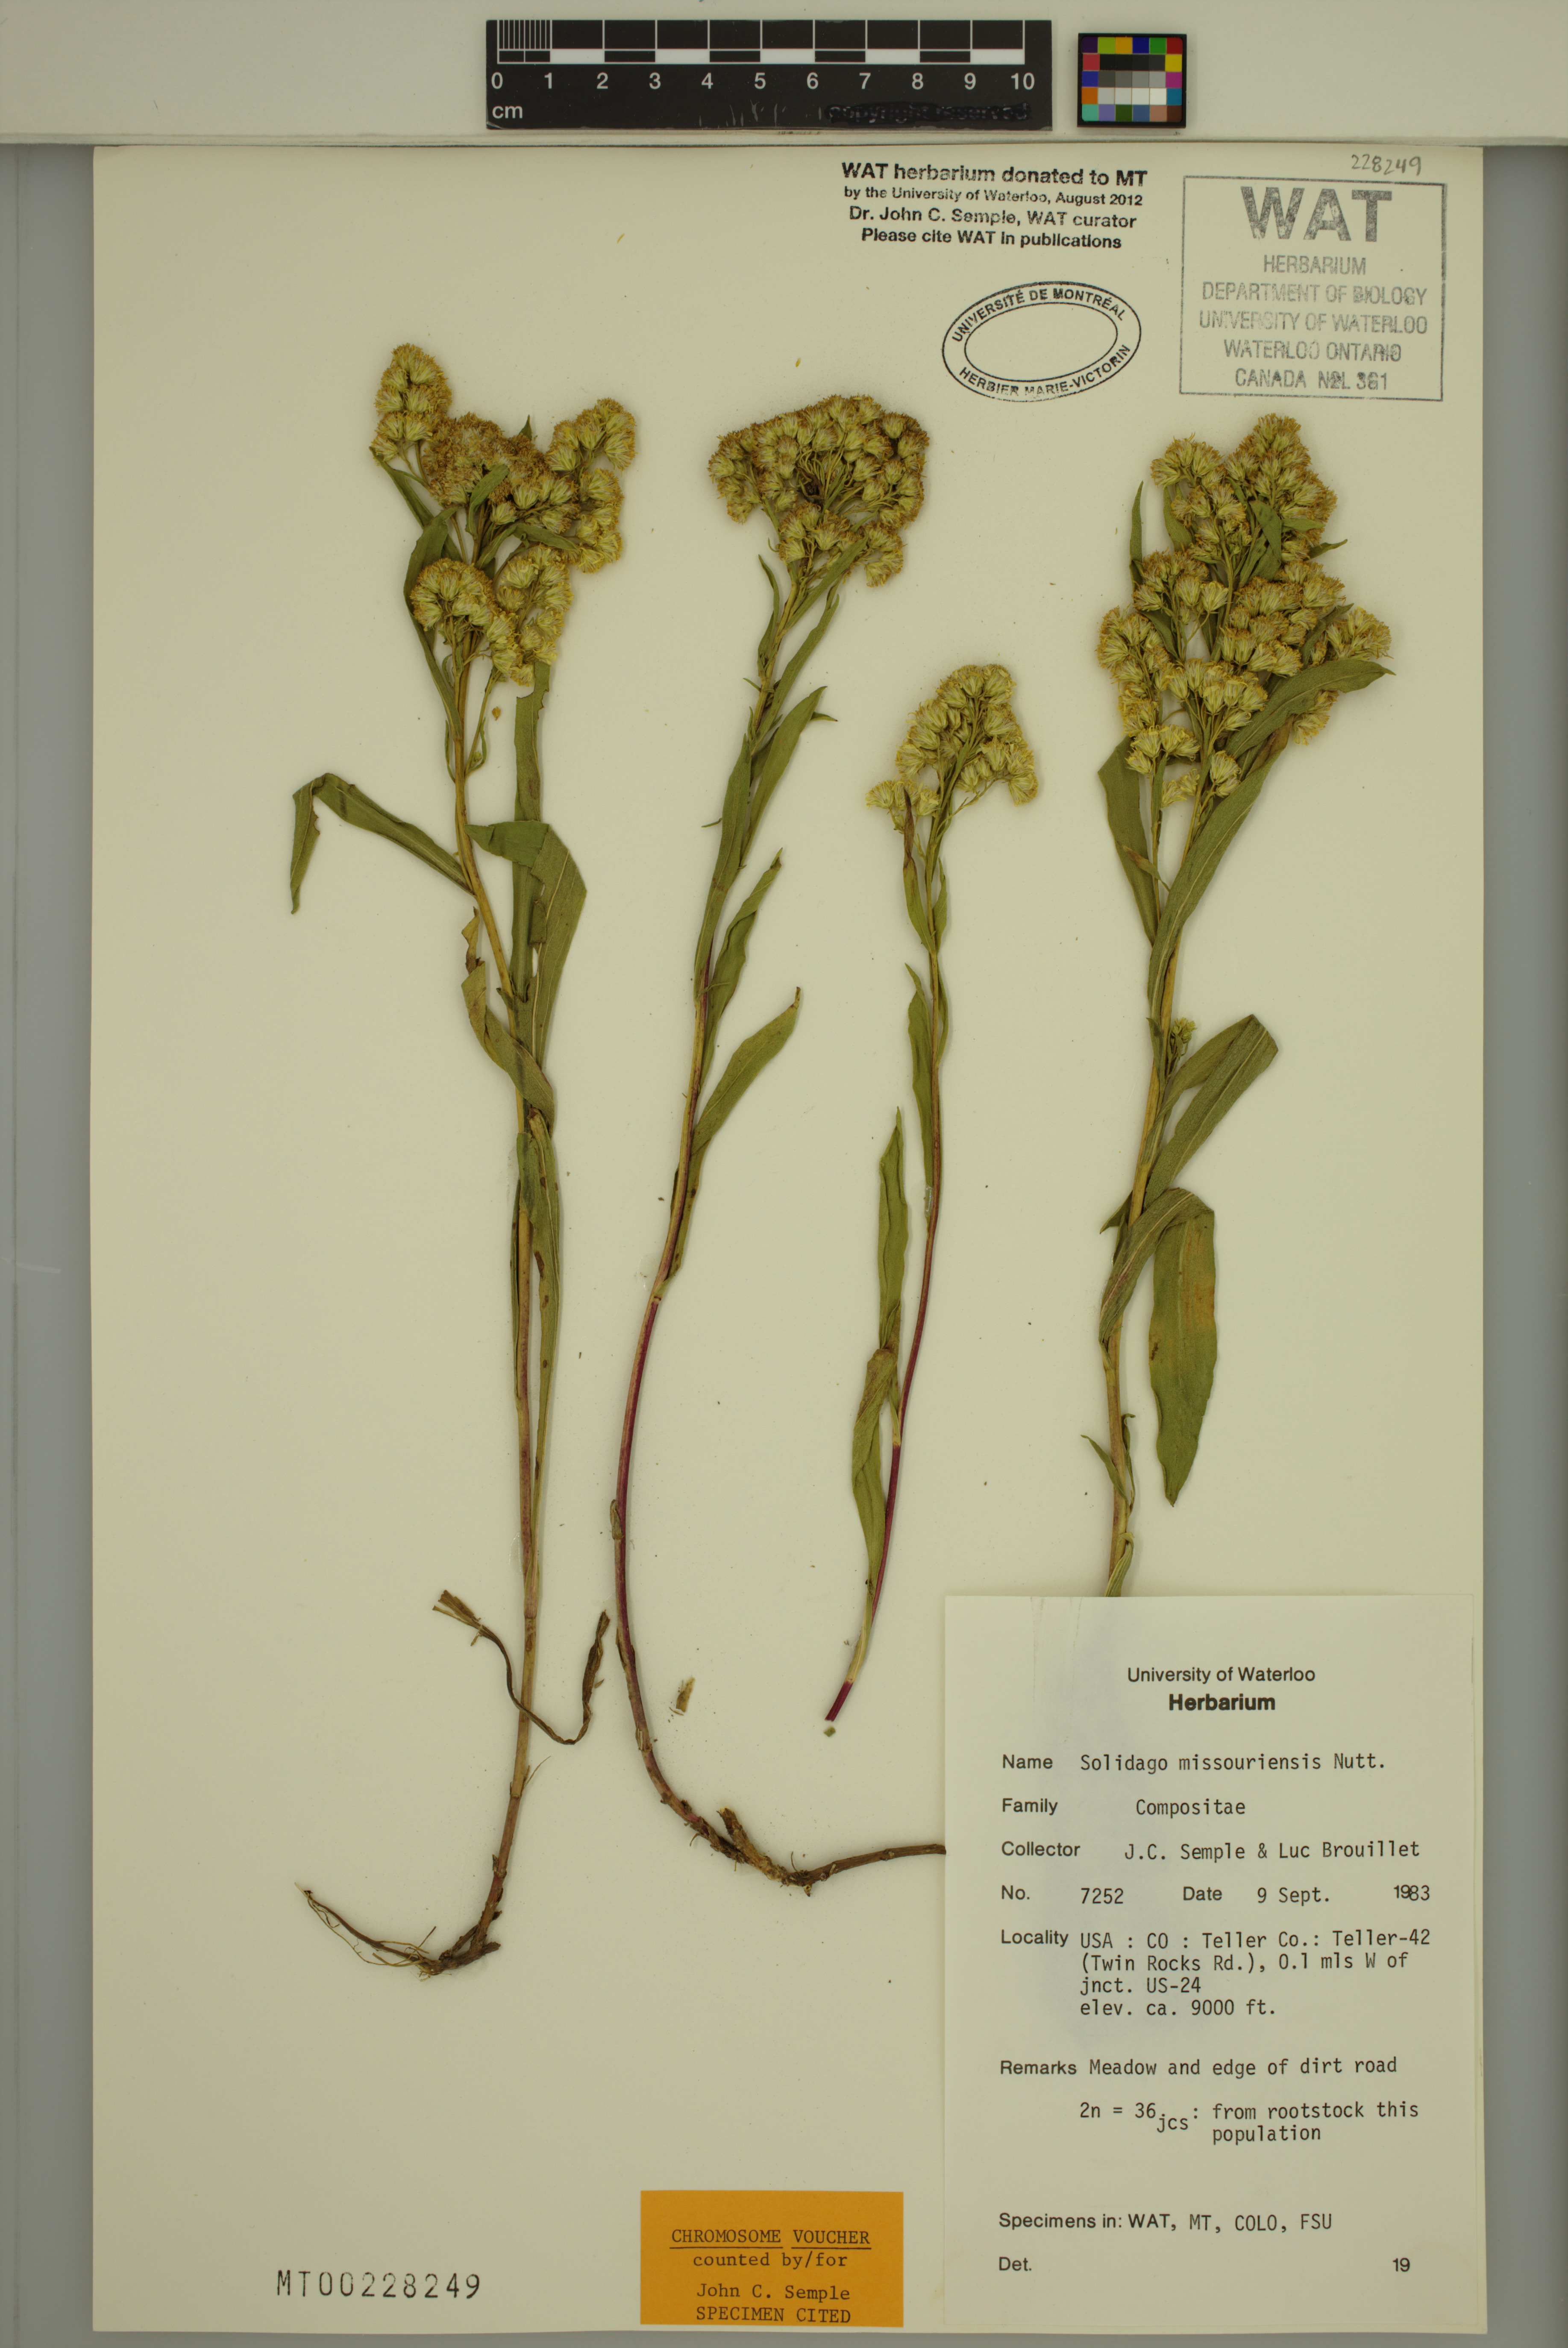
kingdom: Plantae
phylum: Tracheophyta
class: Magnoliopsida
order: Asterales
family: Asteraceae
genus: Solidago
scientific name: Solidago missouriensis
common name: Prairie goldenrod
